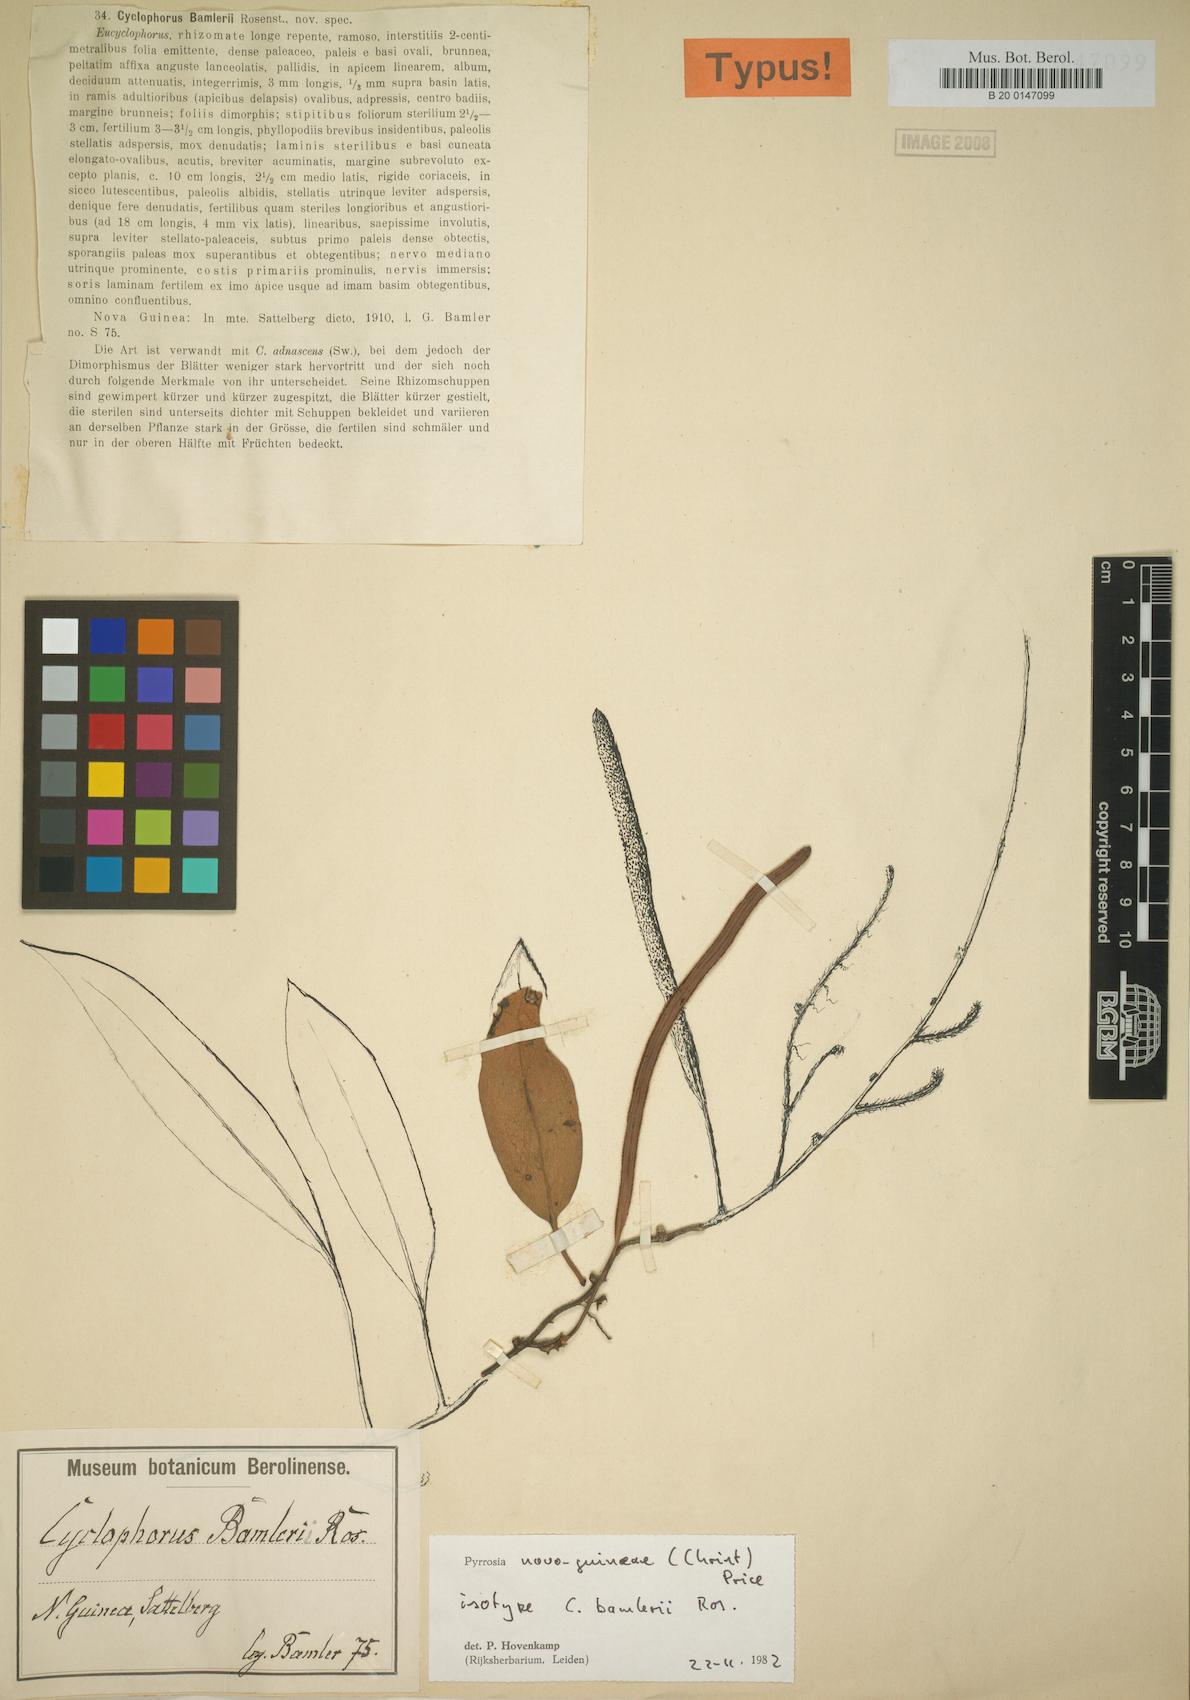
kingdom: Plantae
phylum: Tracheophyta
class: Polypodiopsida
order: Polypodiales
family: Polypodiaceae
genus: Pyrrosia
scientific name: Pyrrosia novoguineae
